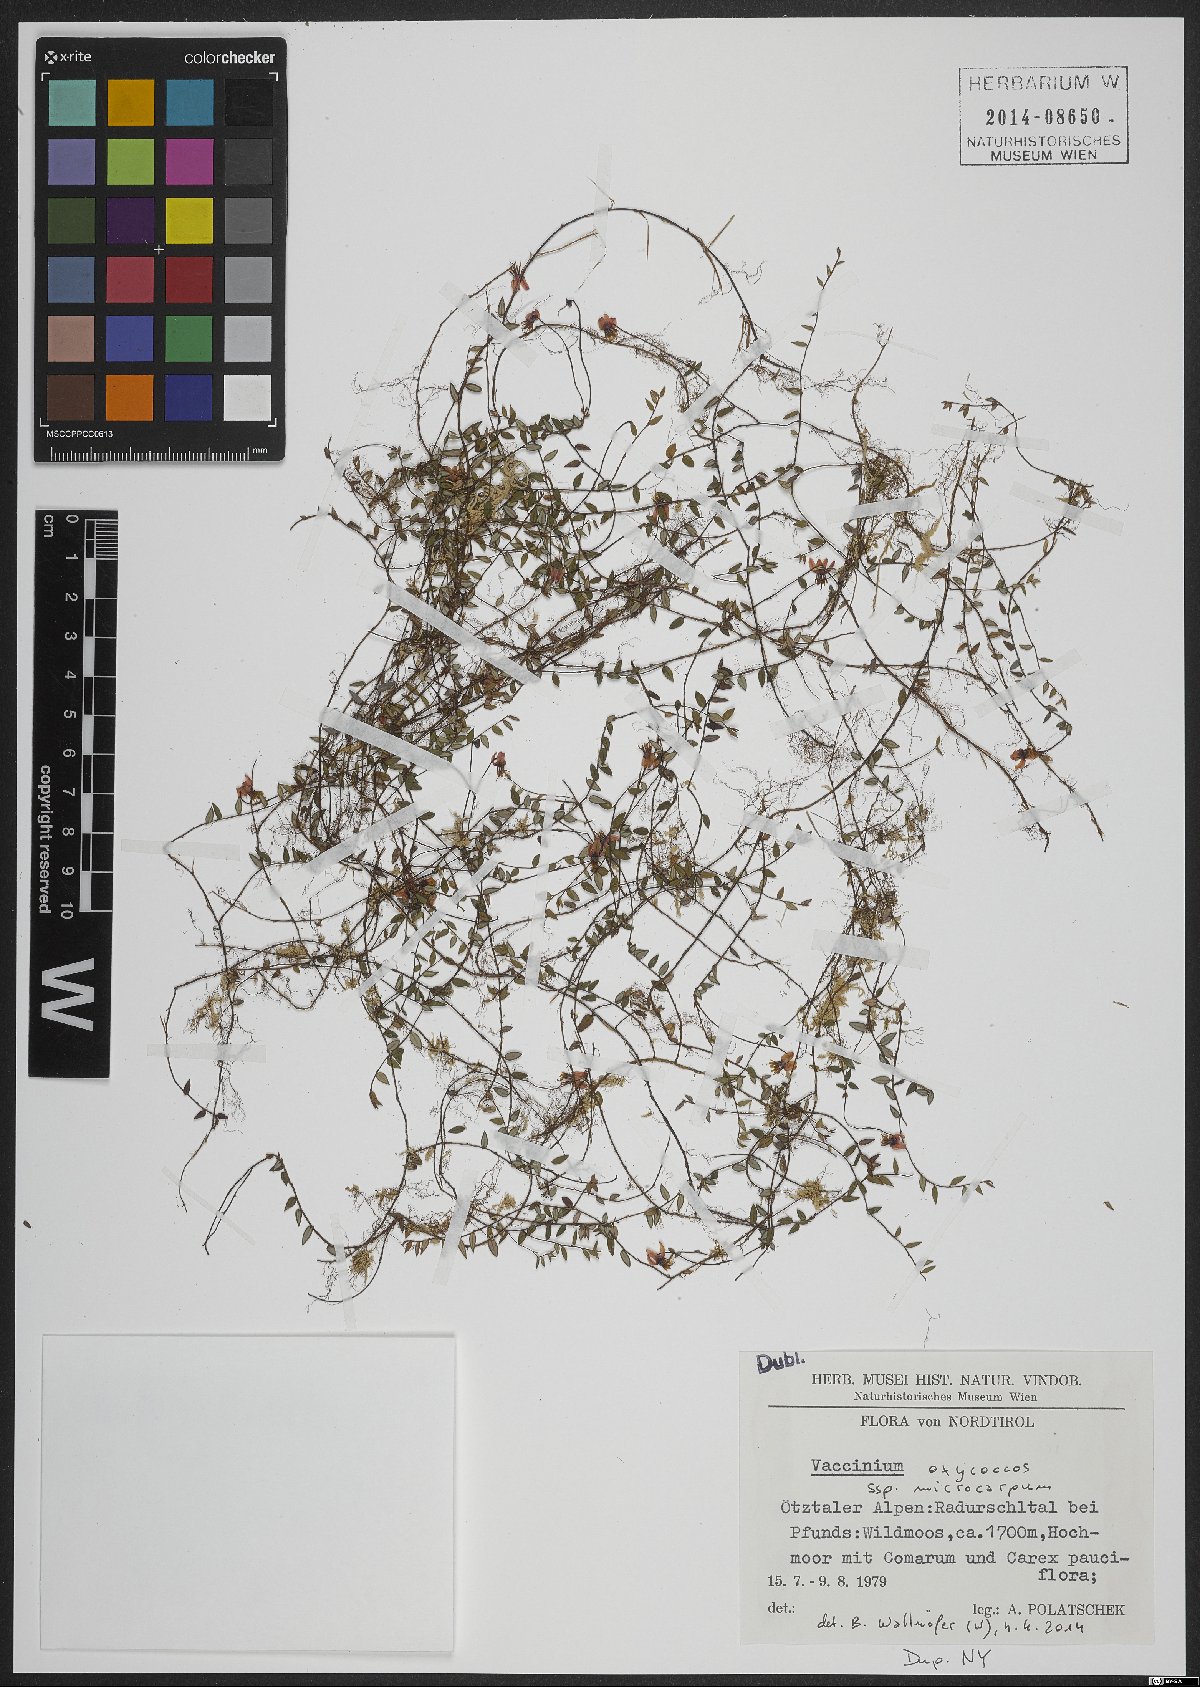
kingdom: Plantae
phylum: Tracheophyta
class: Magnoliopsida
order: Ericales
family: Ericaceae
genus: Vaccinium
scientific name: Vaccinium microcarpum
